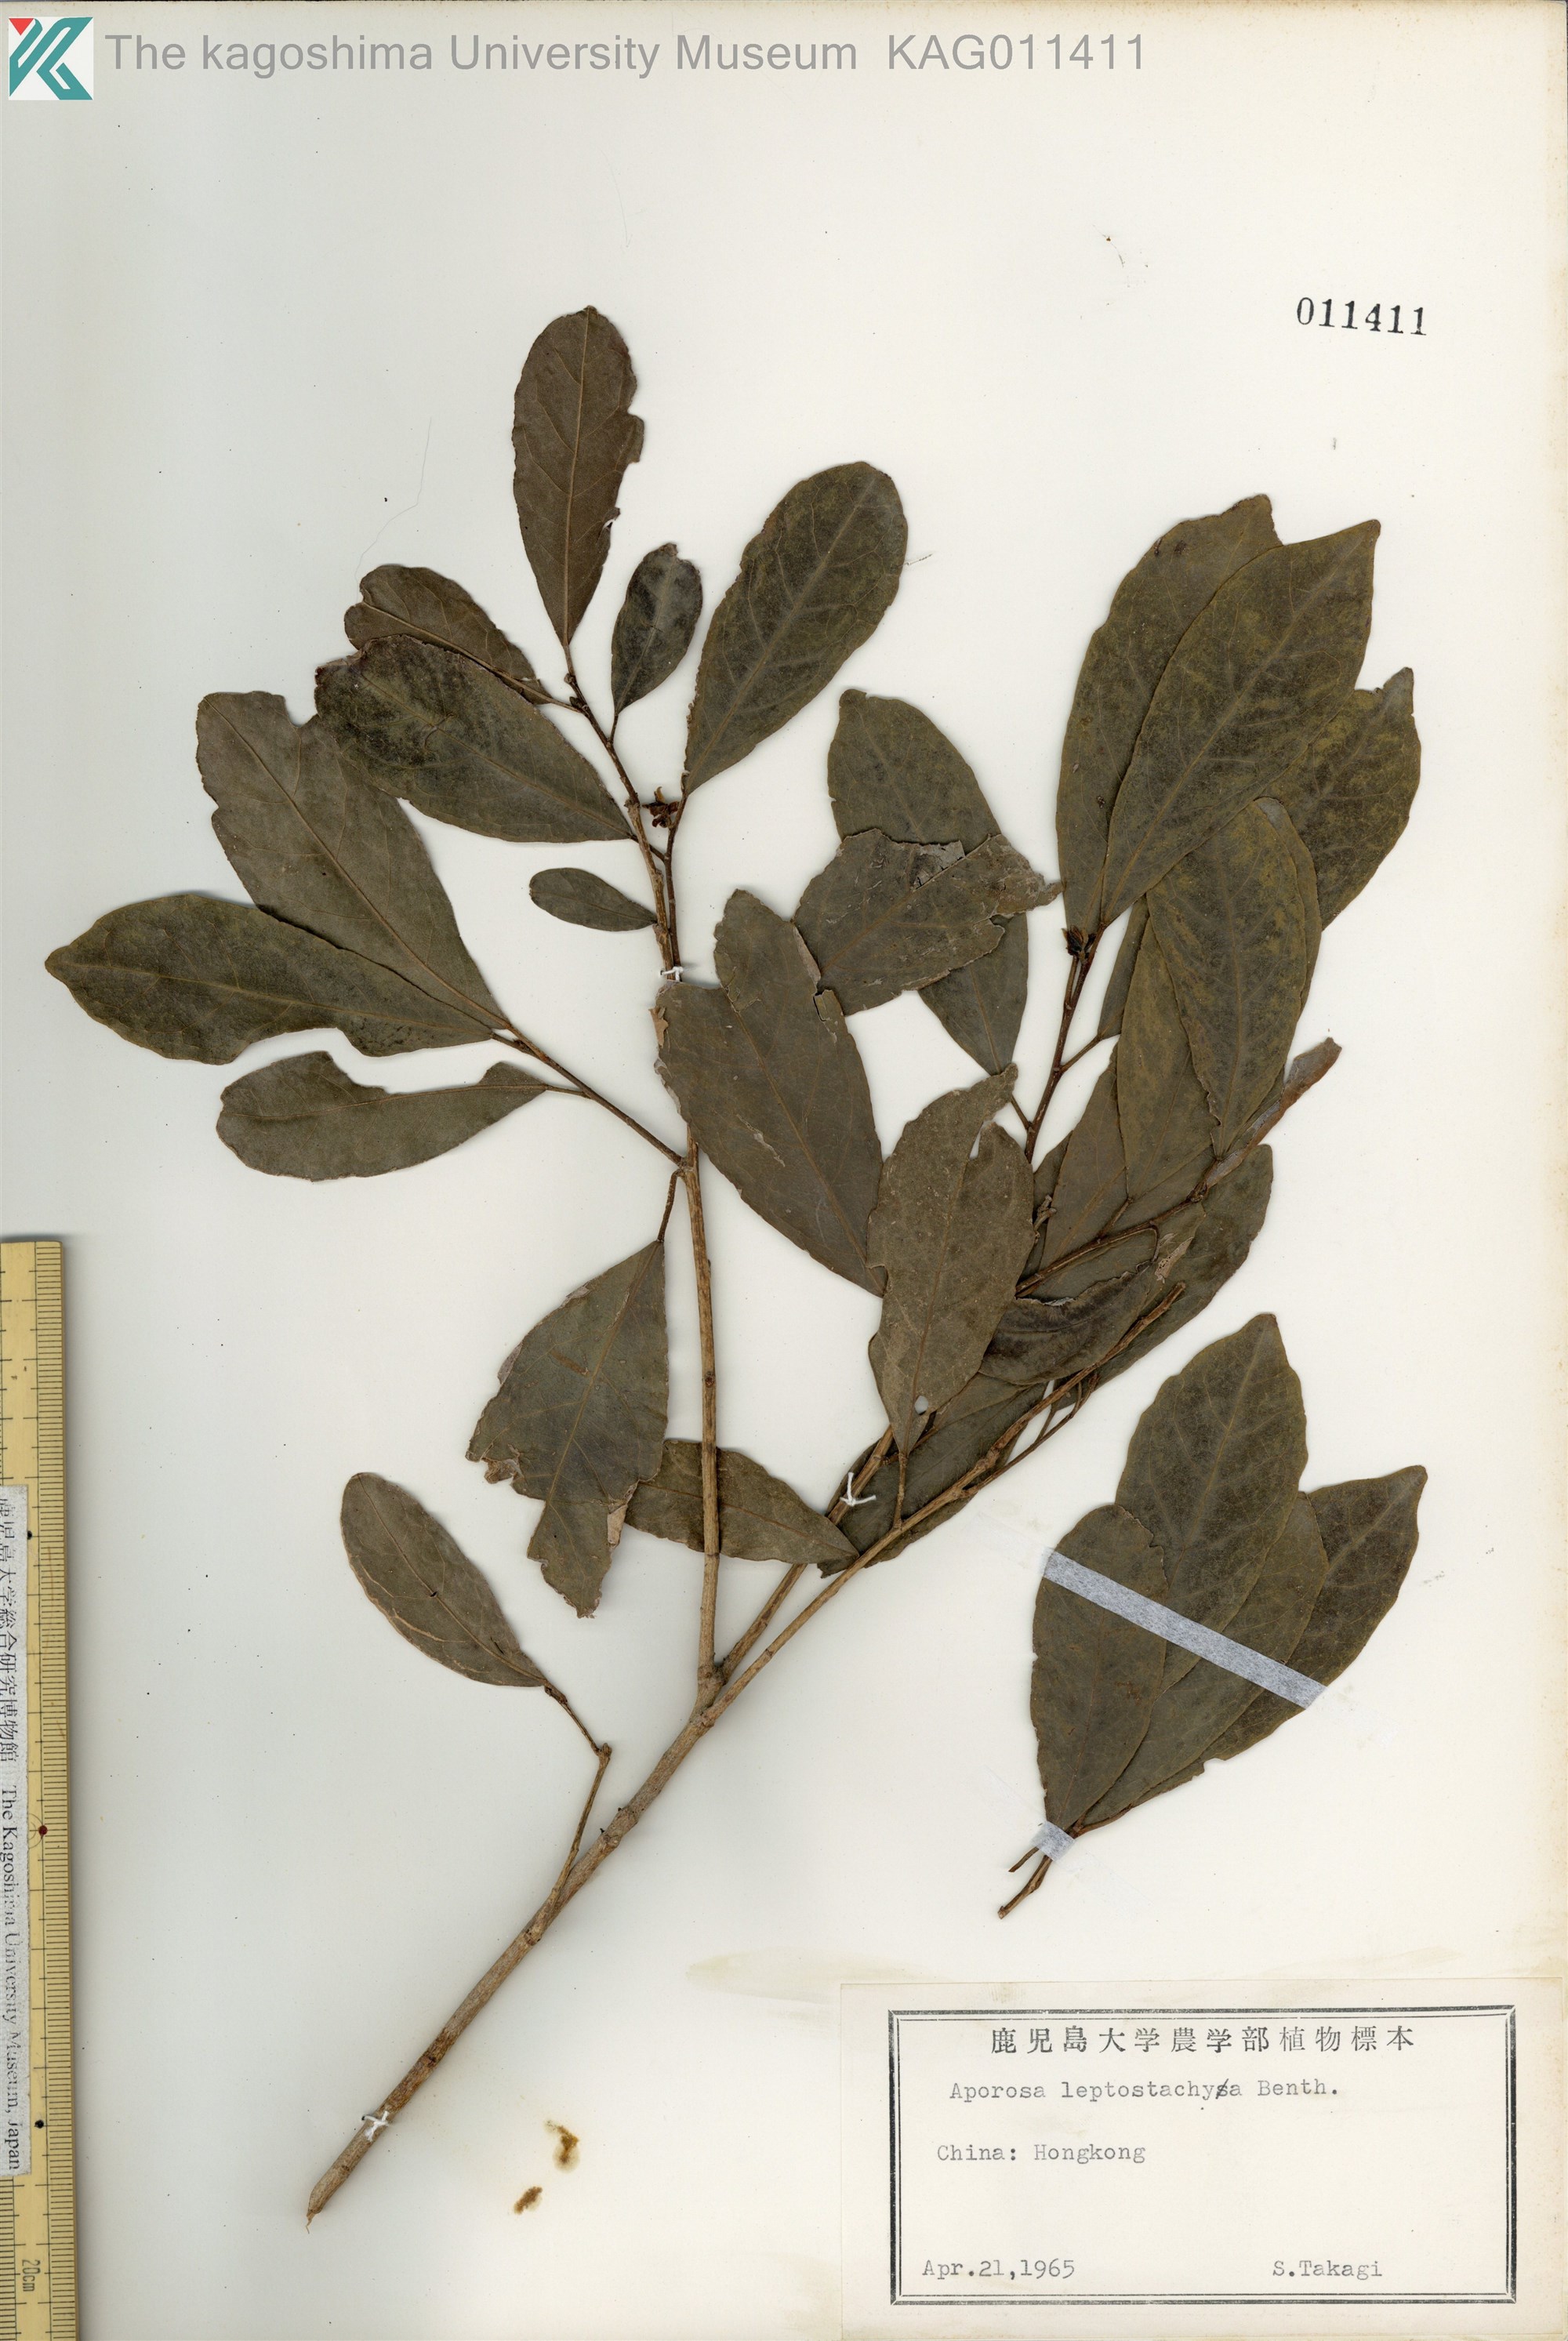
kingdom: Plantae
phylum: Tracheophyta
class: Magnoliopsida
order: Malpighiales
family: Phyllanthaceae
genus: Aporosa
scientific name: Aporosa octandra
